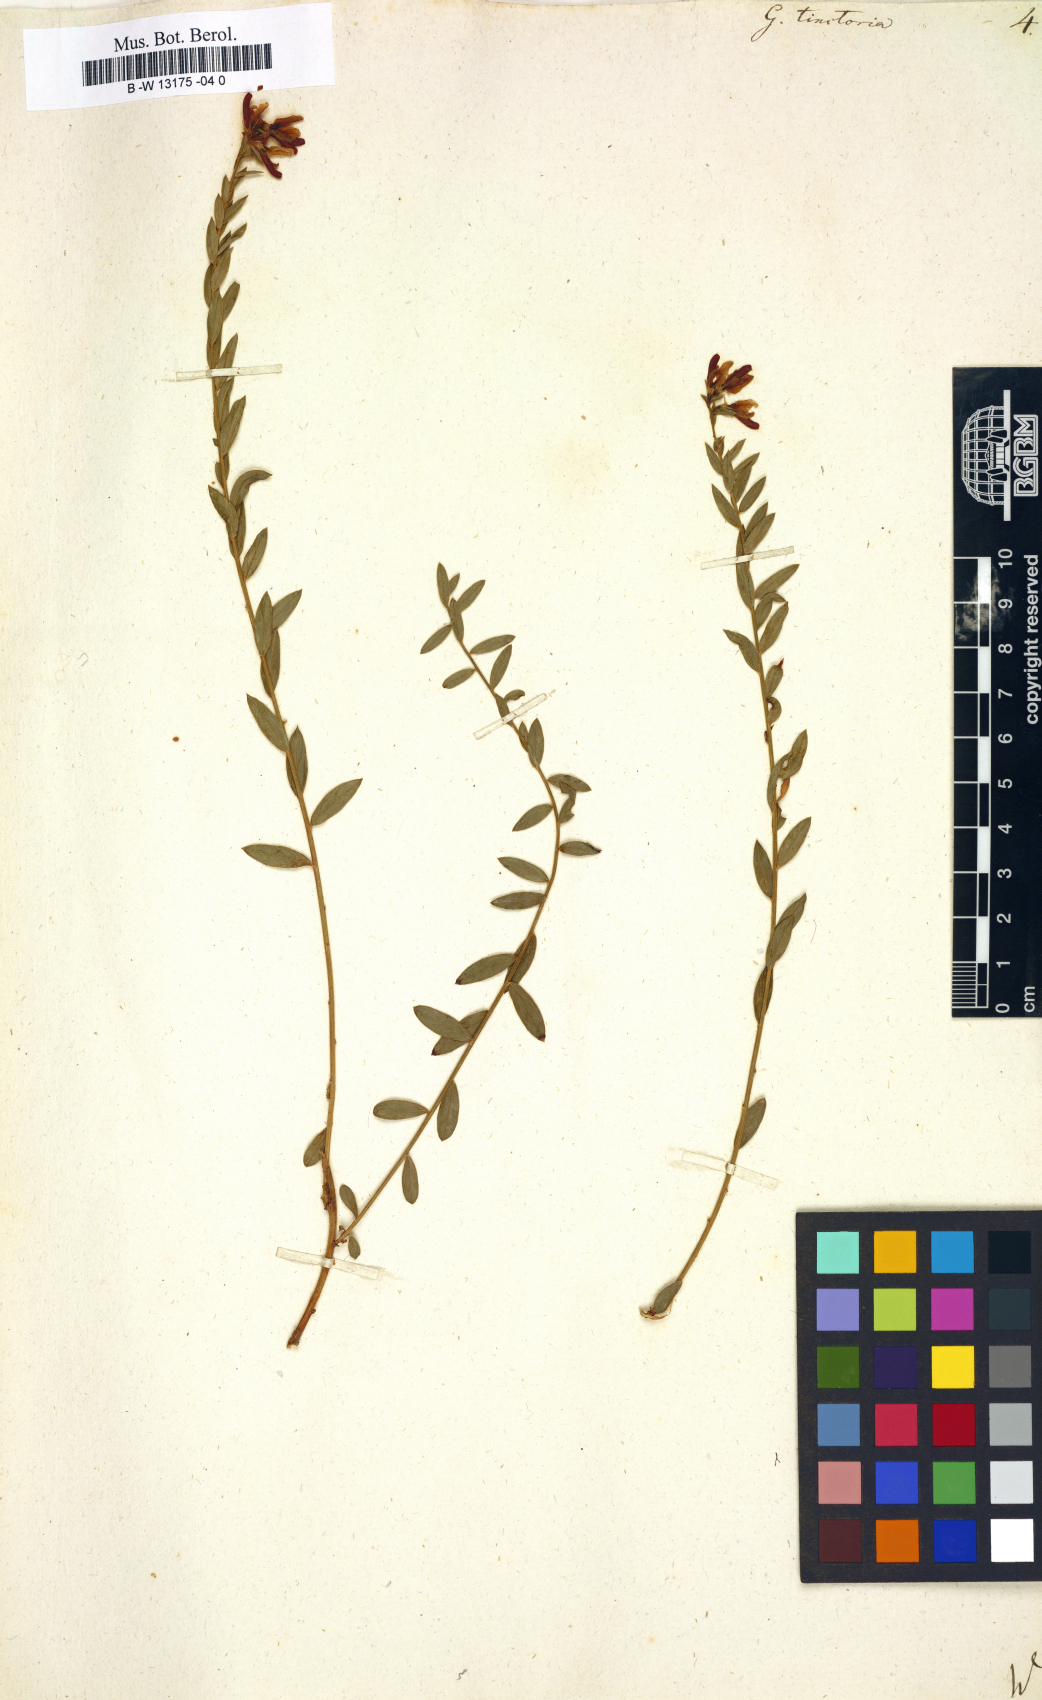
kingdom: Plantae
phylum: Tracheophyta
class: Magnoliopsida
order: Fabales
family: Fabaceae
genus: Genista
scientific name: Genista tinctoria
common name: Dyer's greenweed
